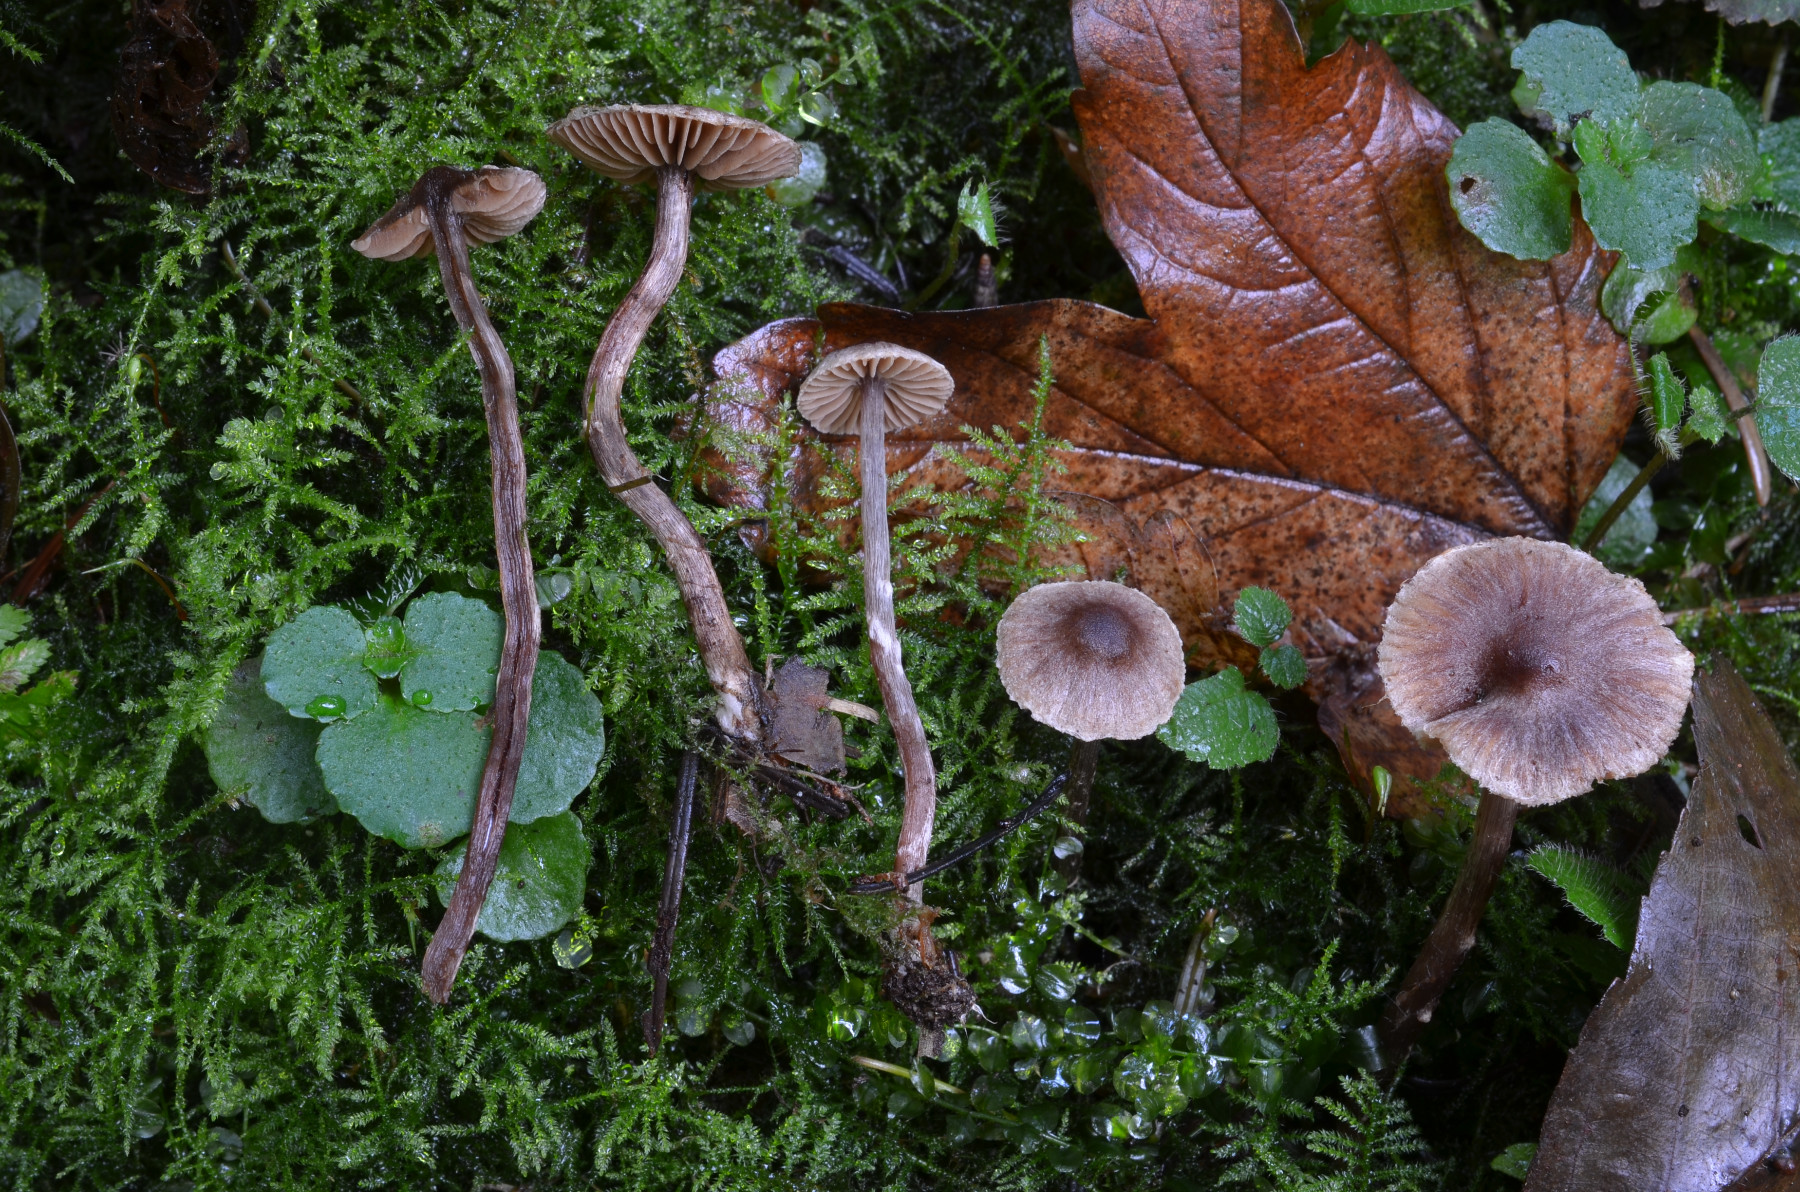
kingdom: Fungi
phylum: Basidiomycota
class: Agaricomycetes
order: Agaricales
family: Cortinariaceae
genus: Cortinarius
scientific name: Cortinarius griseocarneus
